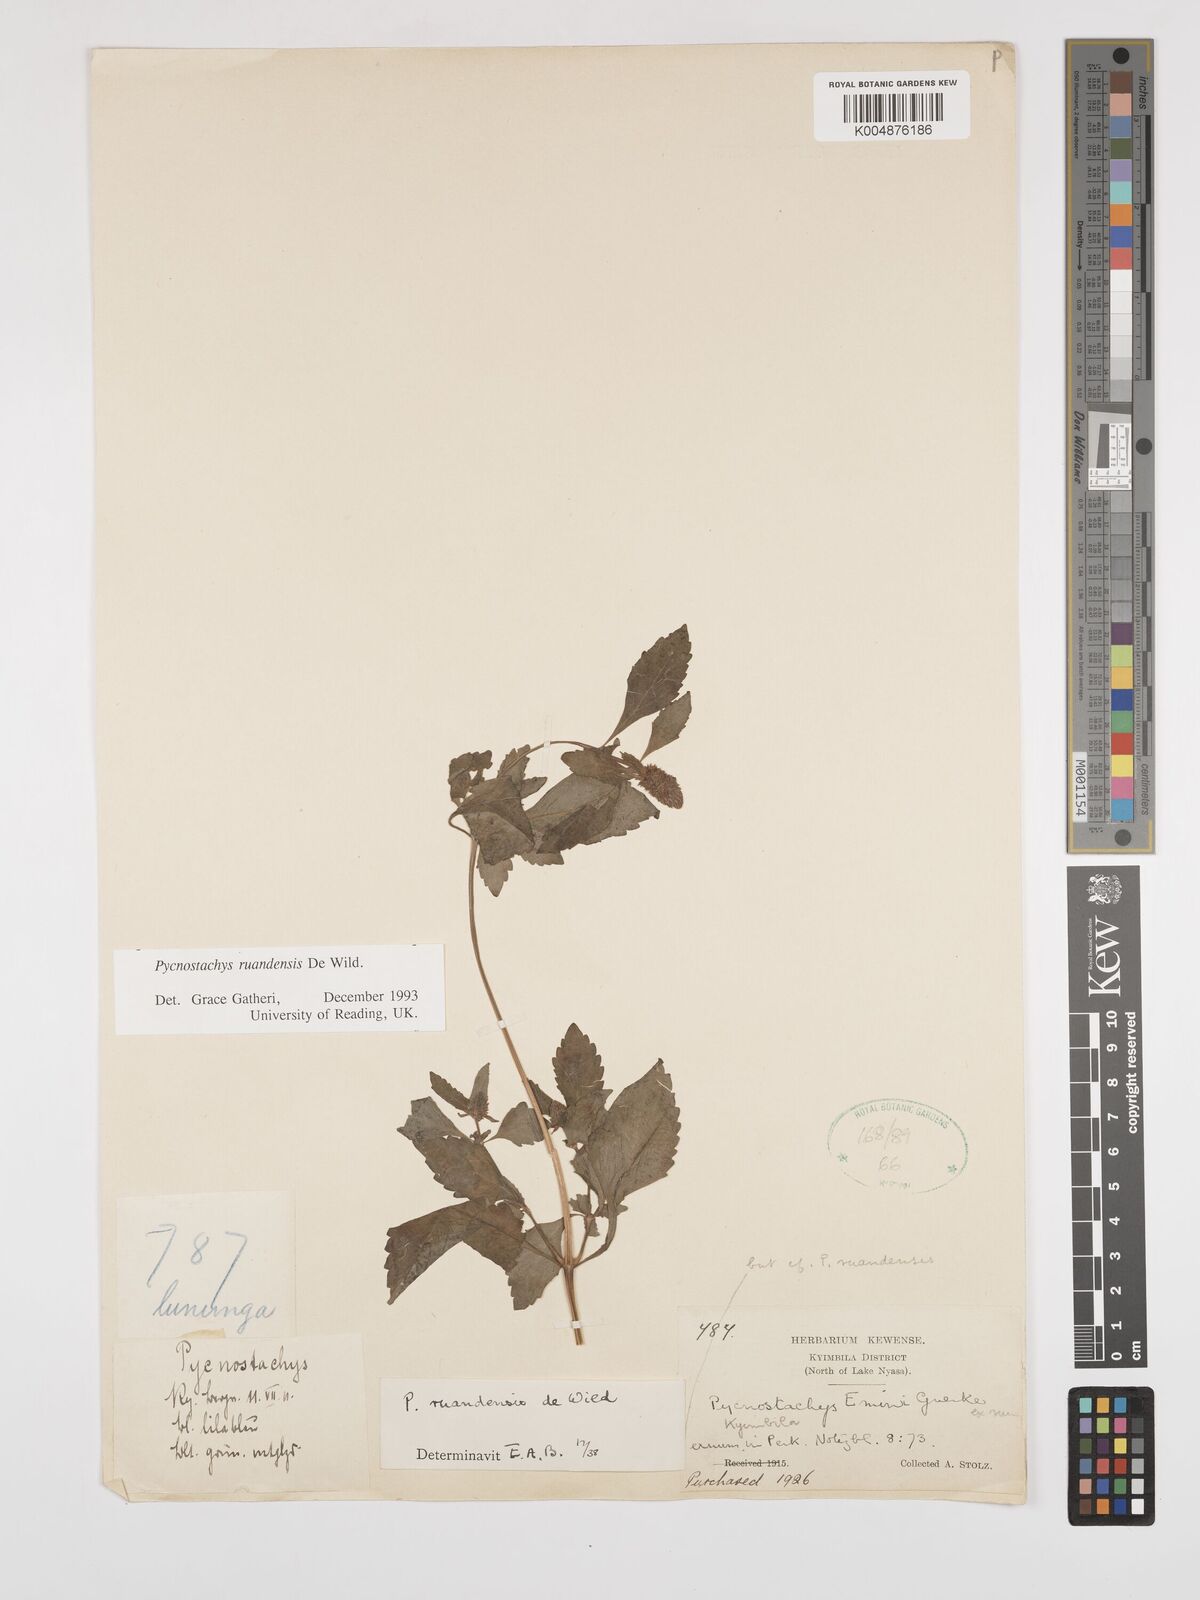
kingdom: Plantae
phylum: Tracheophyta
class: Magnoliopsida
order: Lamiales
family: Lamiaceae
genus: Coleus
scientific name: Coleus ruandensis
